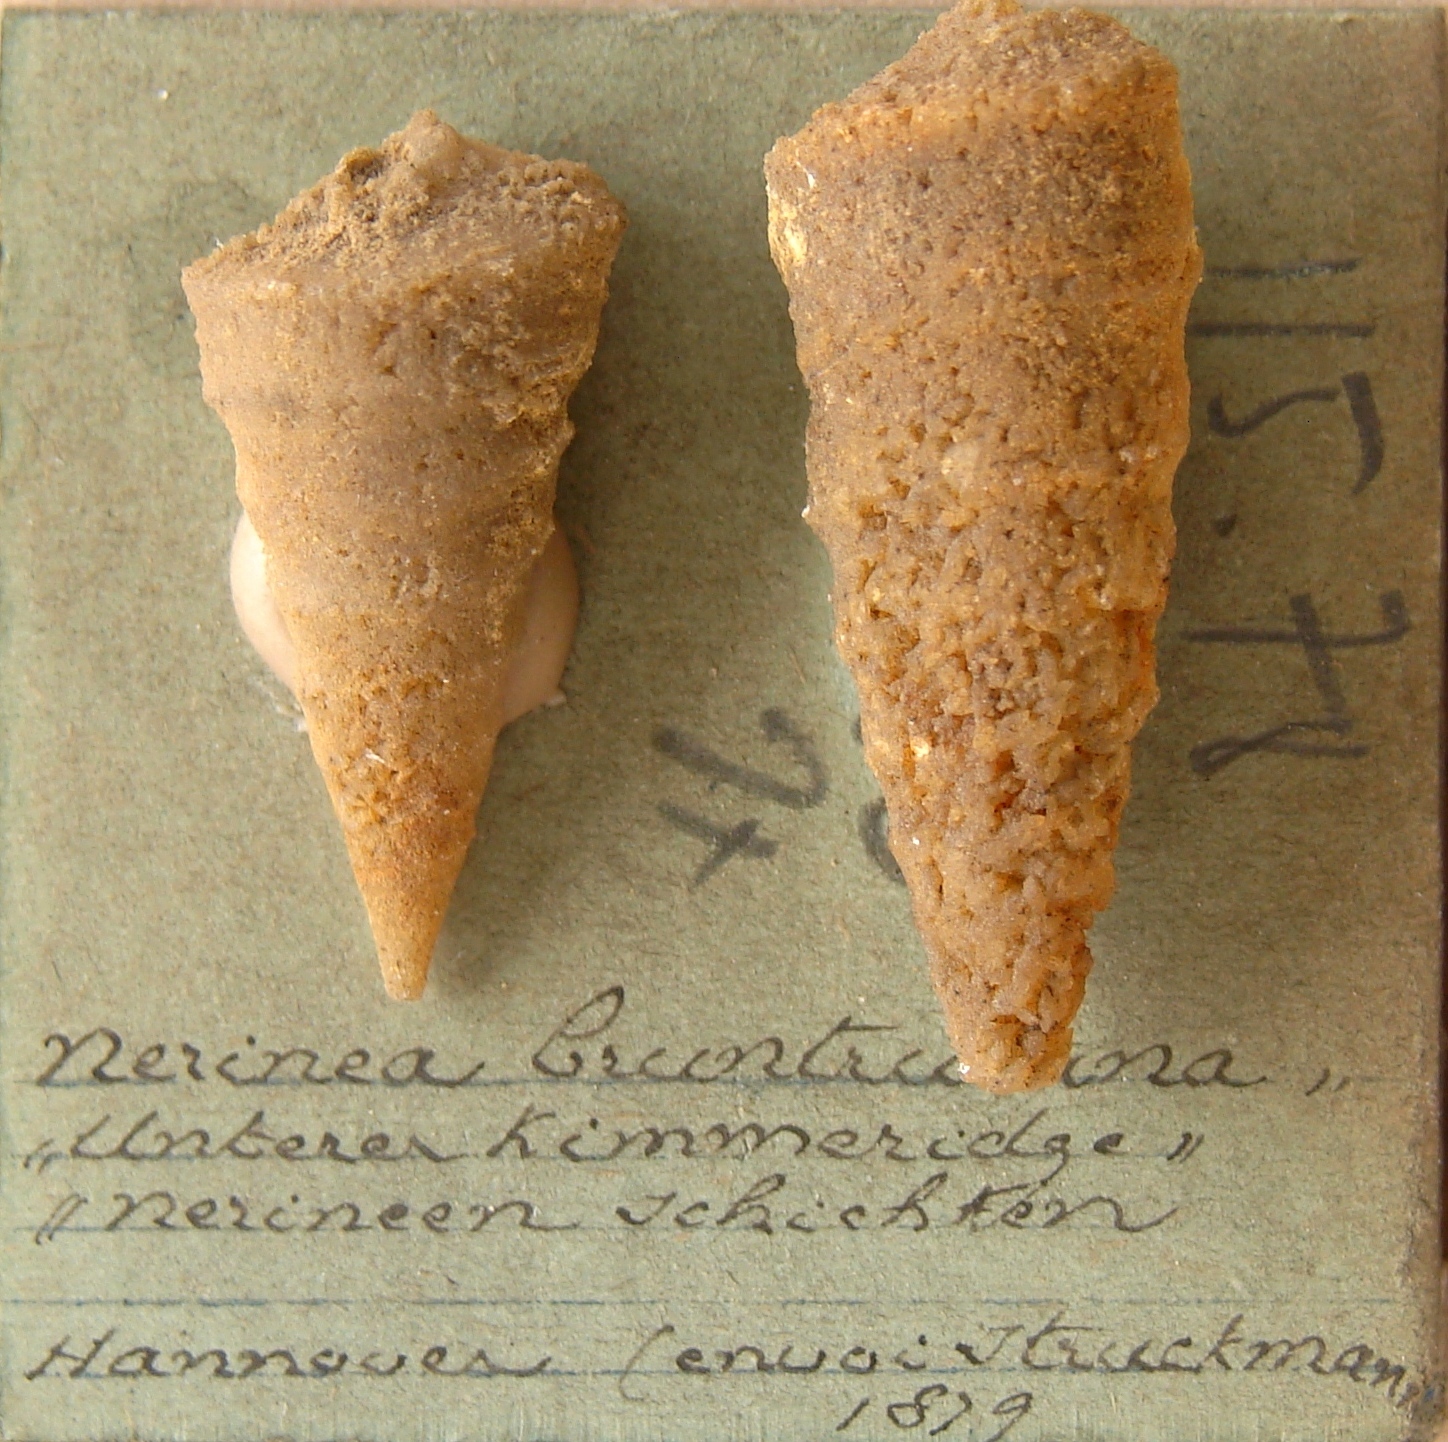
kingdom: Animalia
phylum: Mollusca
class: Gastropoda
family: Ptygmatididae
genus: Ptygmatis
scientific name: Ptygmatis Nerinea pseudobruntrutana
